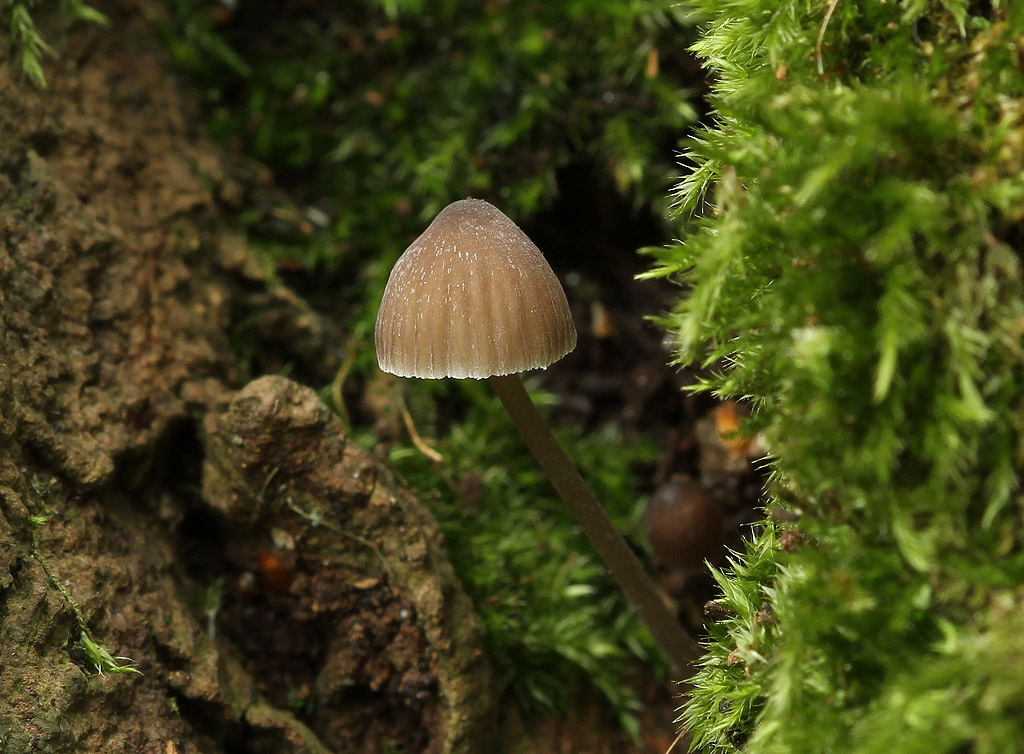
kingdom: Fungi
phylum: Basidiomycota
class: Agaricomycetes
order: Agaricales
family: Mycenaceae
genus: Mycena
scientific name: Mycena erubescens
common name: galde-huesvamp
